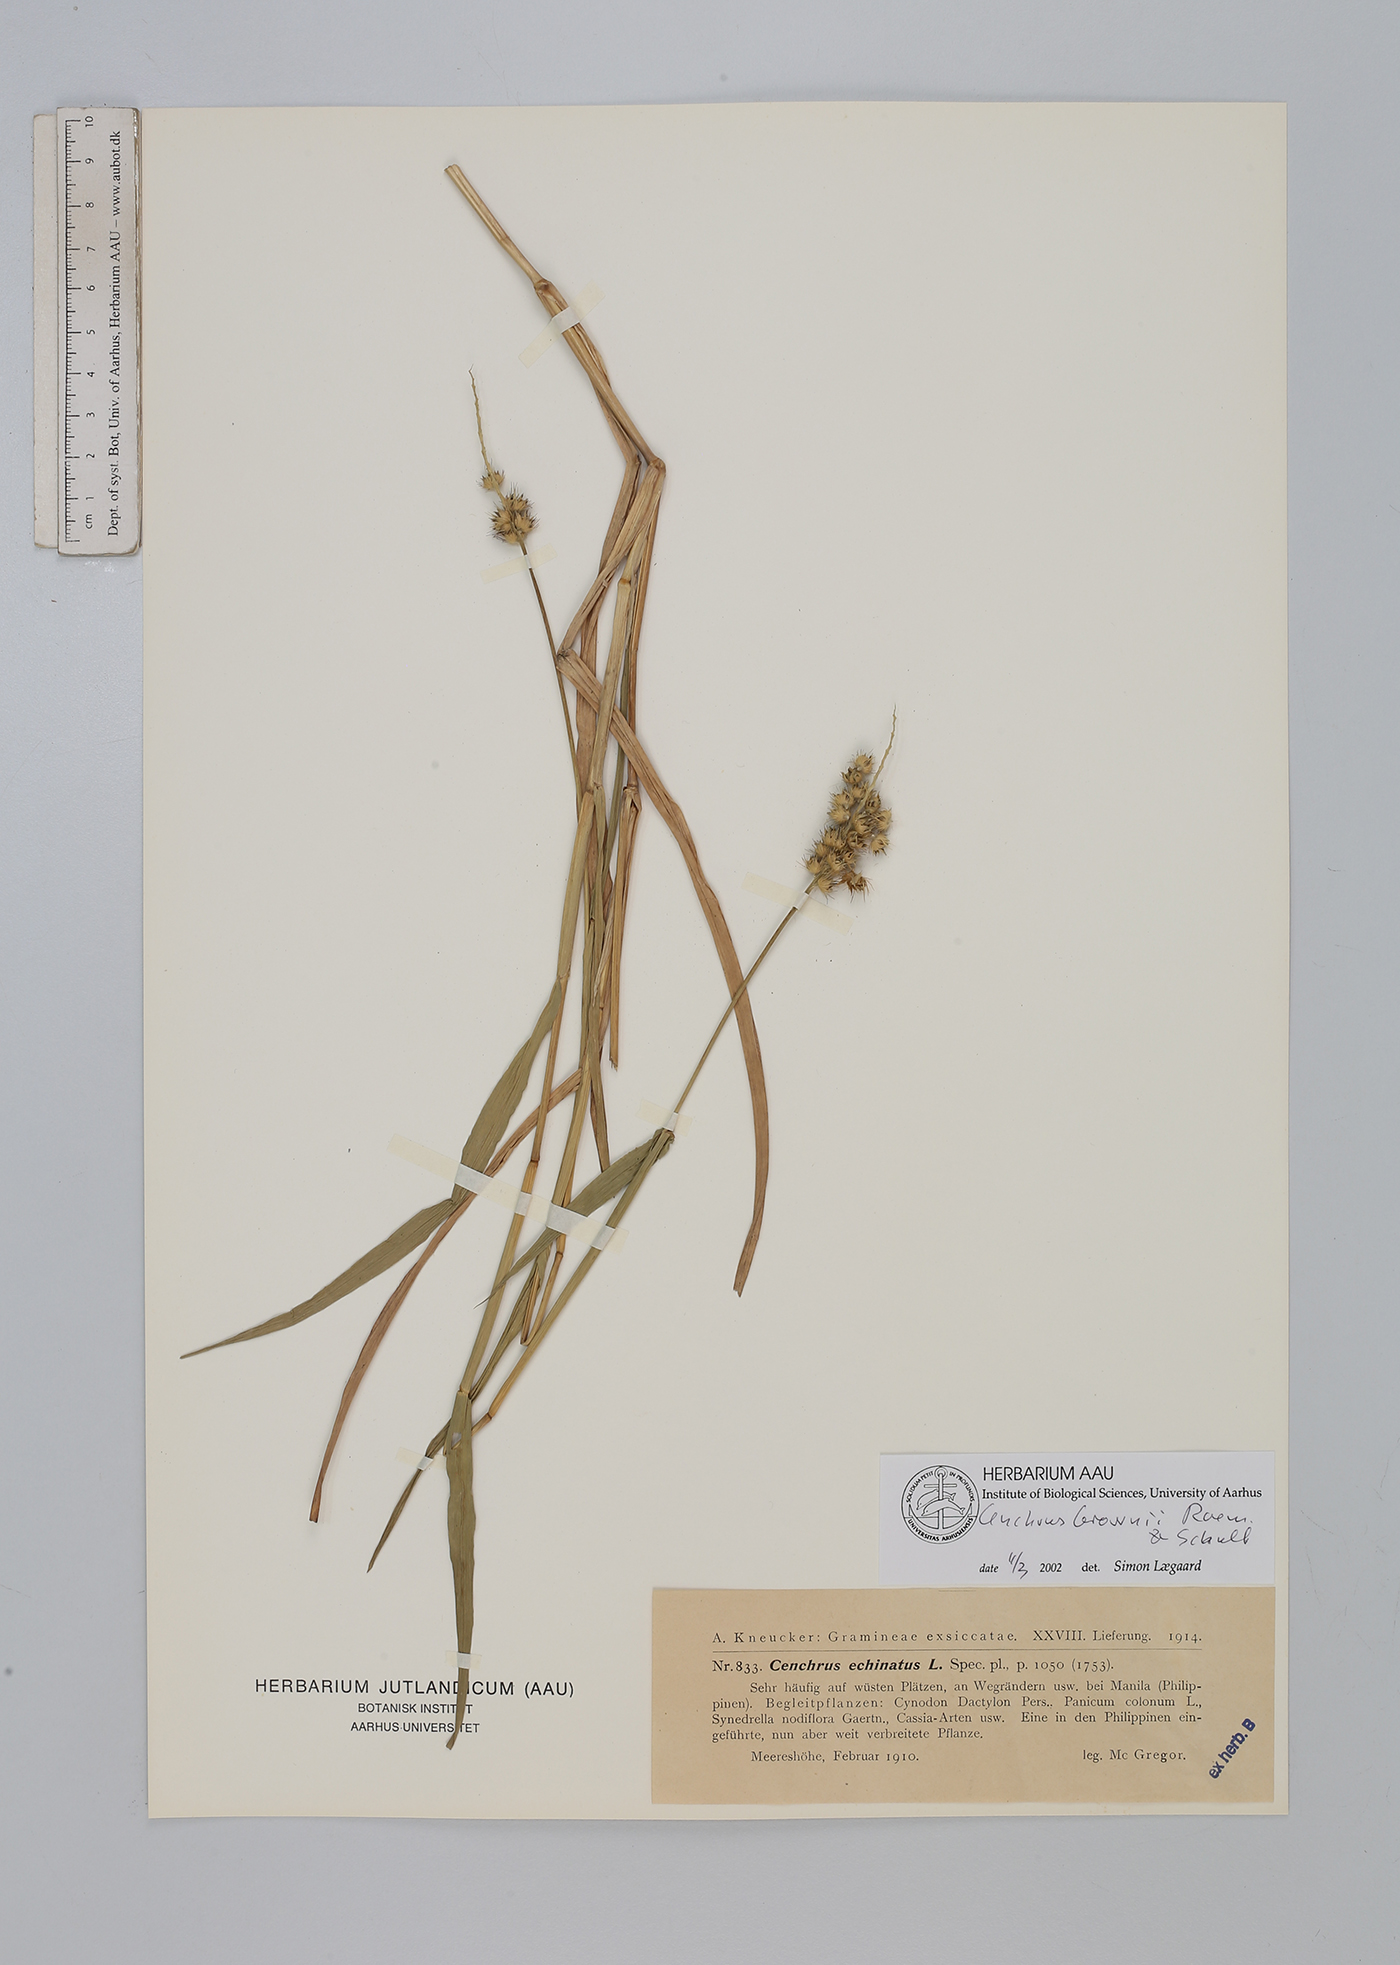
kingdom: Plantae
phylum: Tracheophyta
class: Liliopsida
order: Poales
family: Poaceae
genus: Cenchrus
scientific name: Cenchrus brownii
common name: Slim-bristle sandbur
